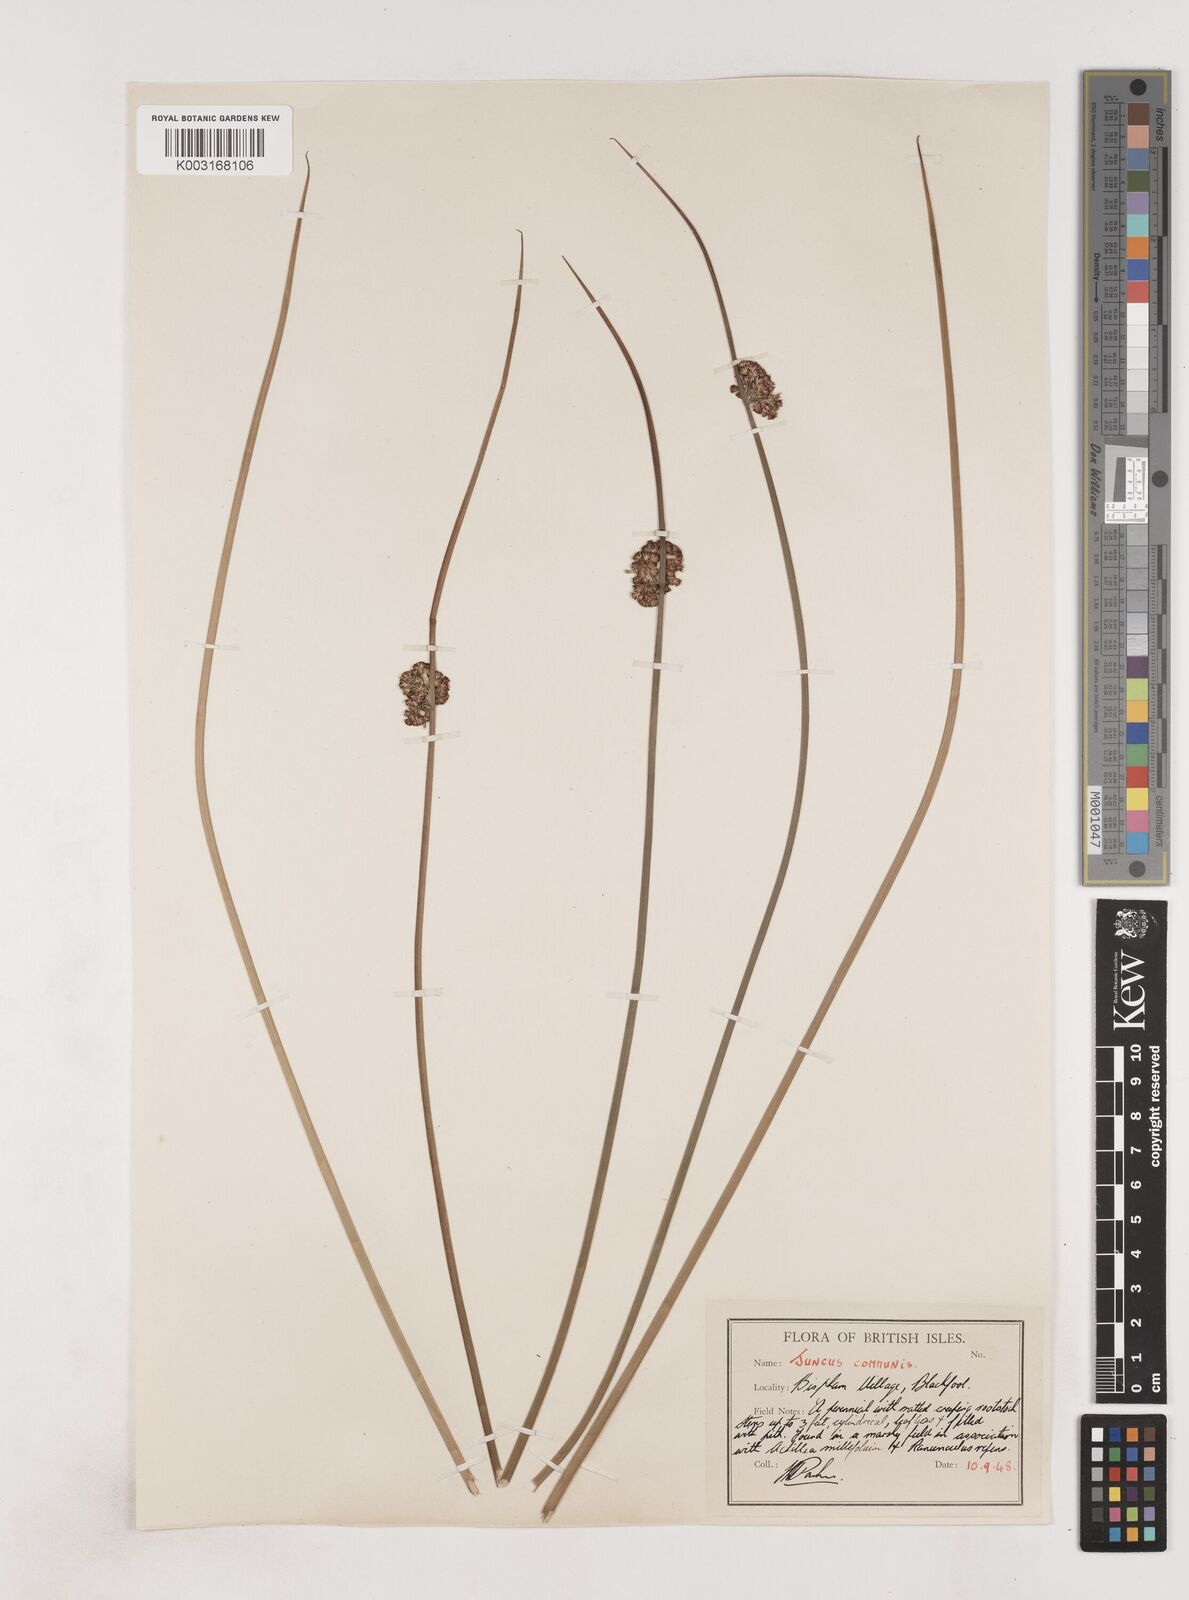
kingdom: Plantae
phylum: Tracheophyta
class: Liliopsida
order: Poales
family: Juncaceae
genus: Juncus
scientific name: Juncus conglomeratus
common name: Compact rush
